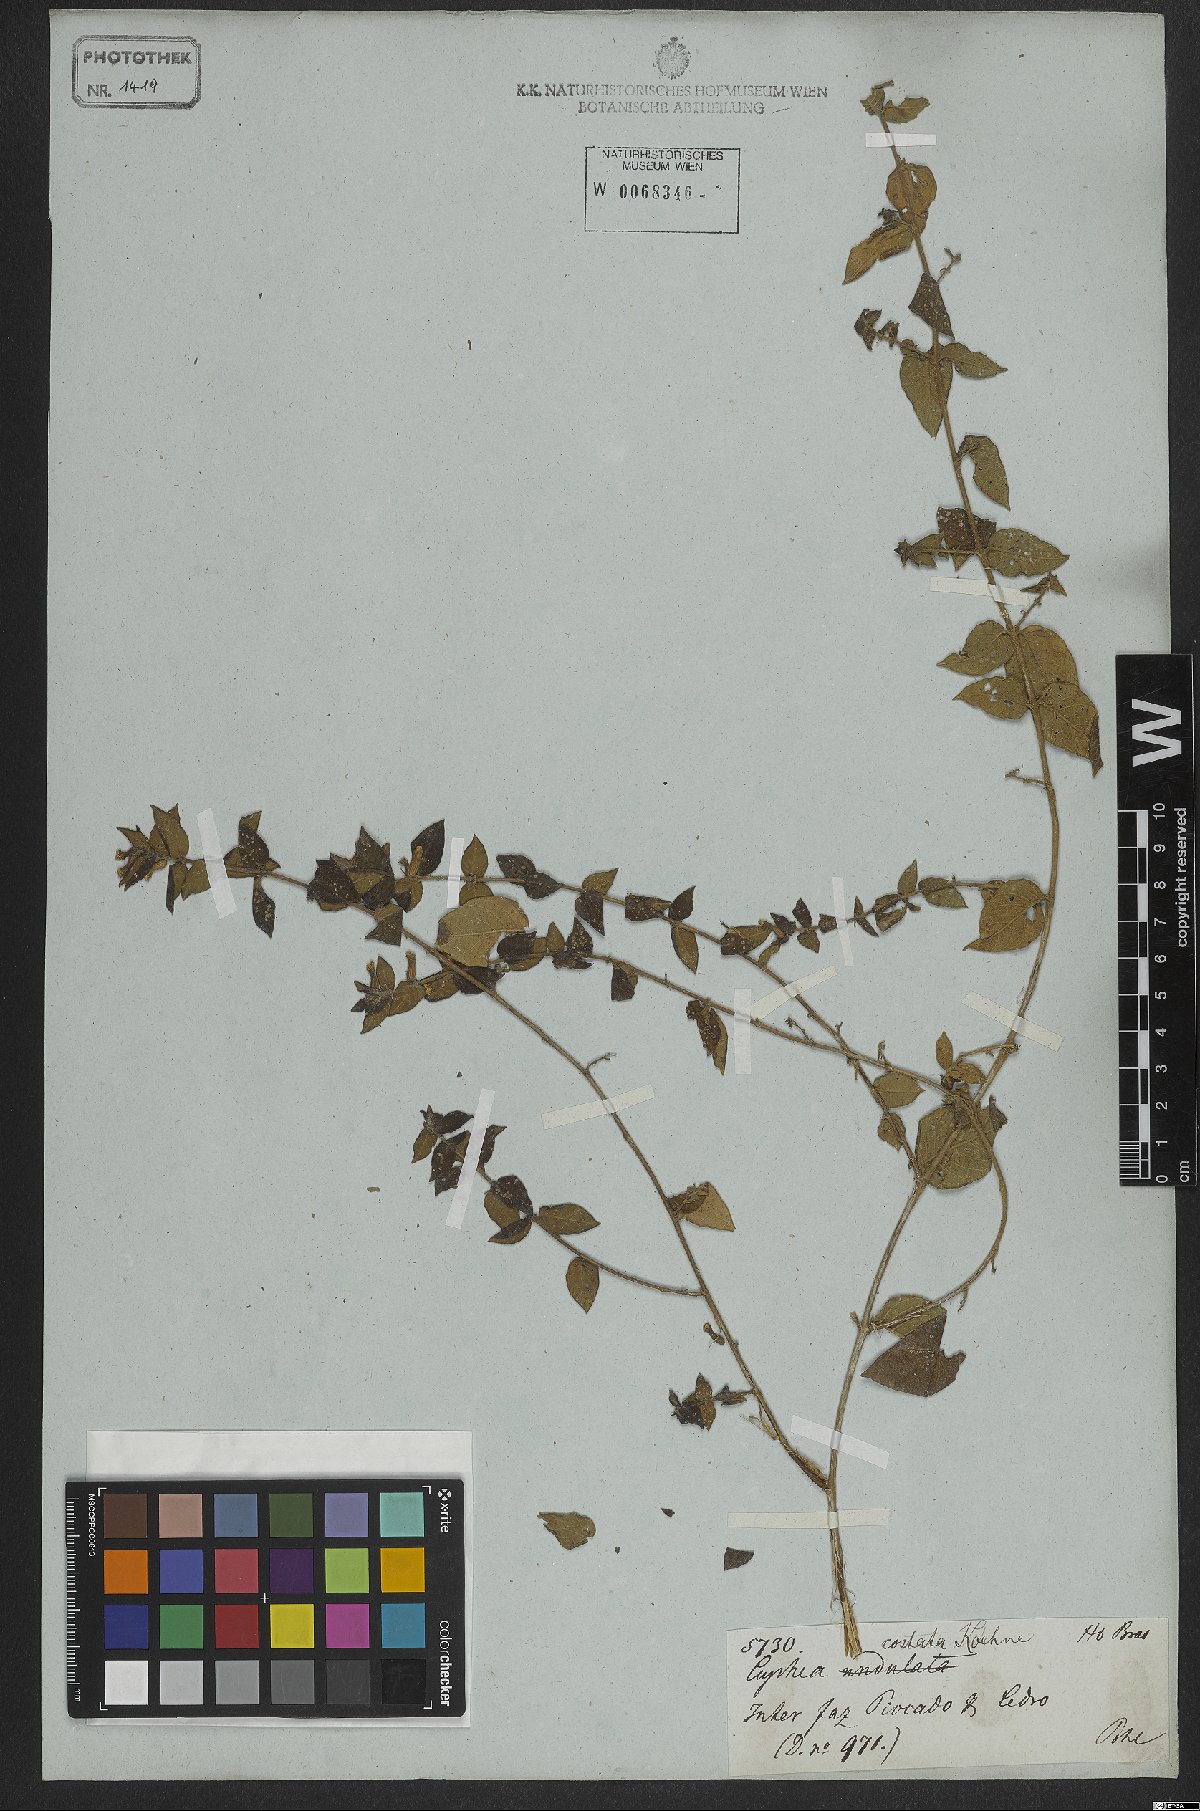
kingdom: Plantae
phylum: Tracheophyta
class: Magnoliopsida
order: Myrtales
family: Lythraceae
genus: Cuphea
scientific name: Cuphea sessiliflora
